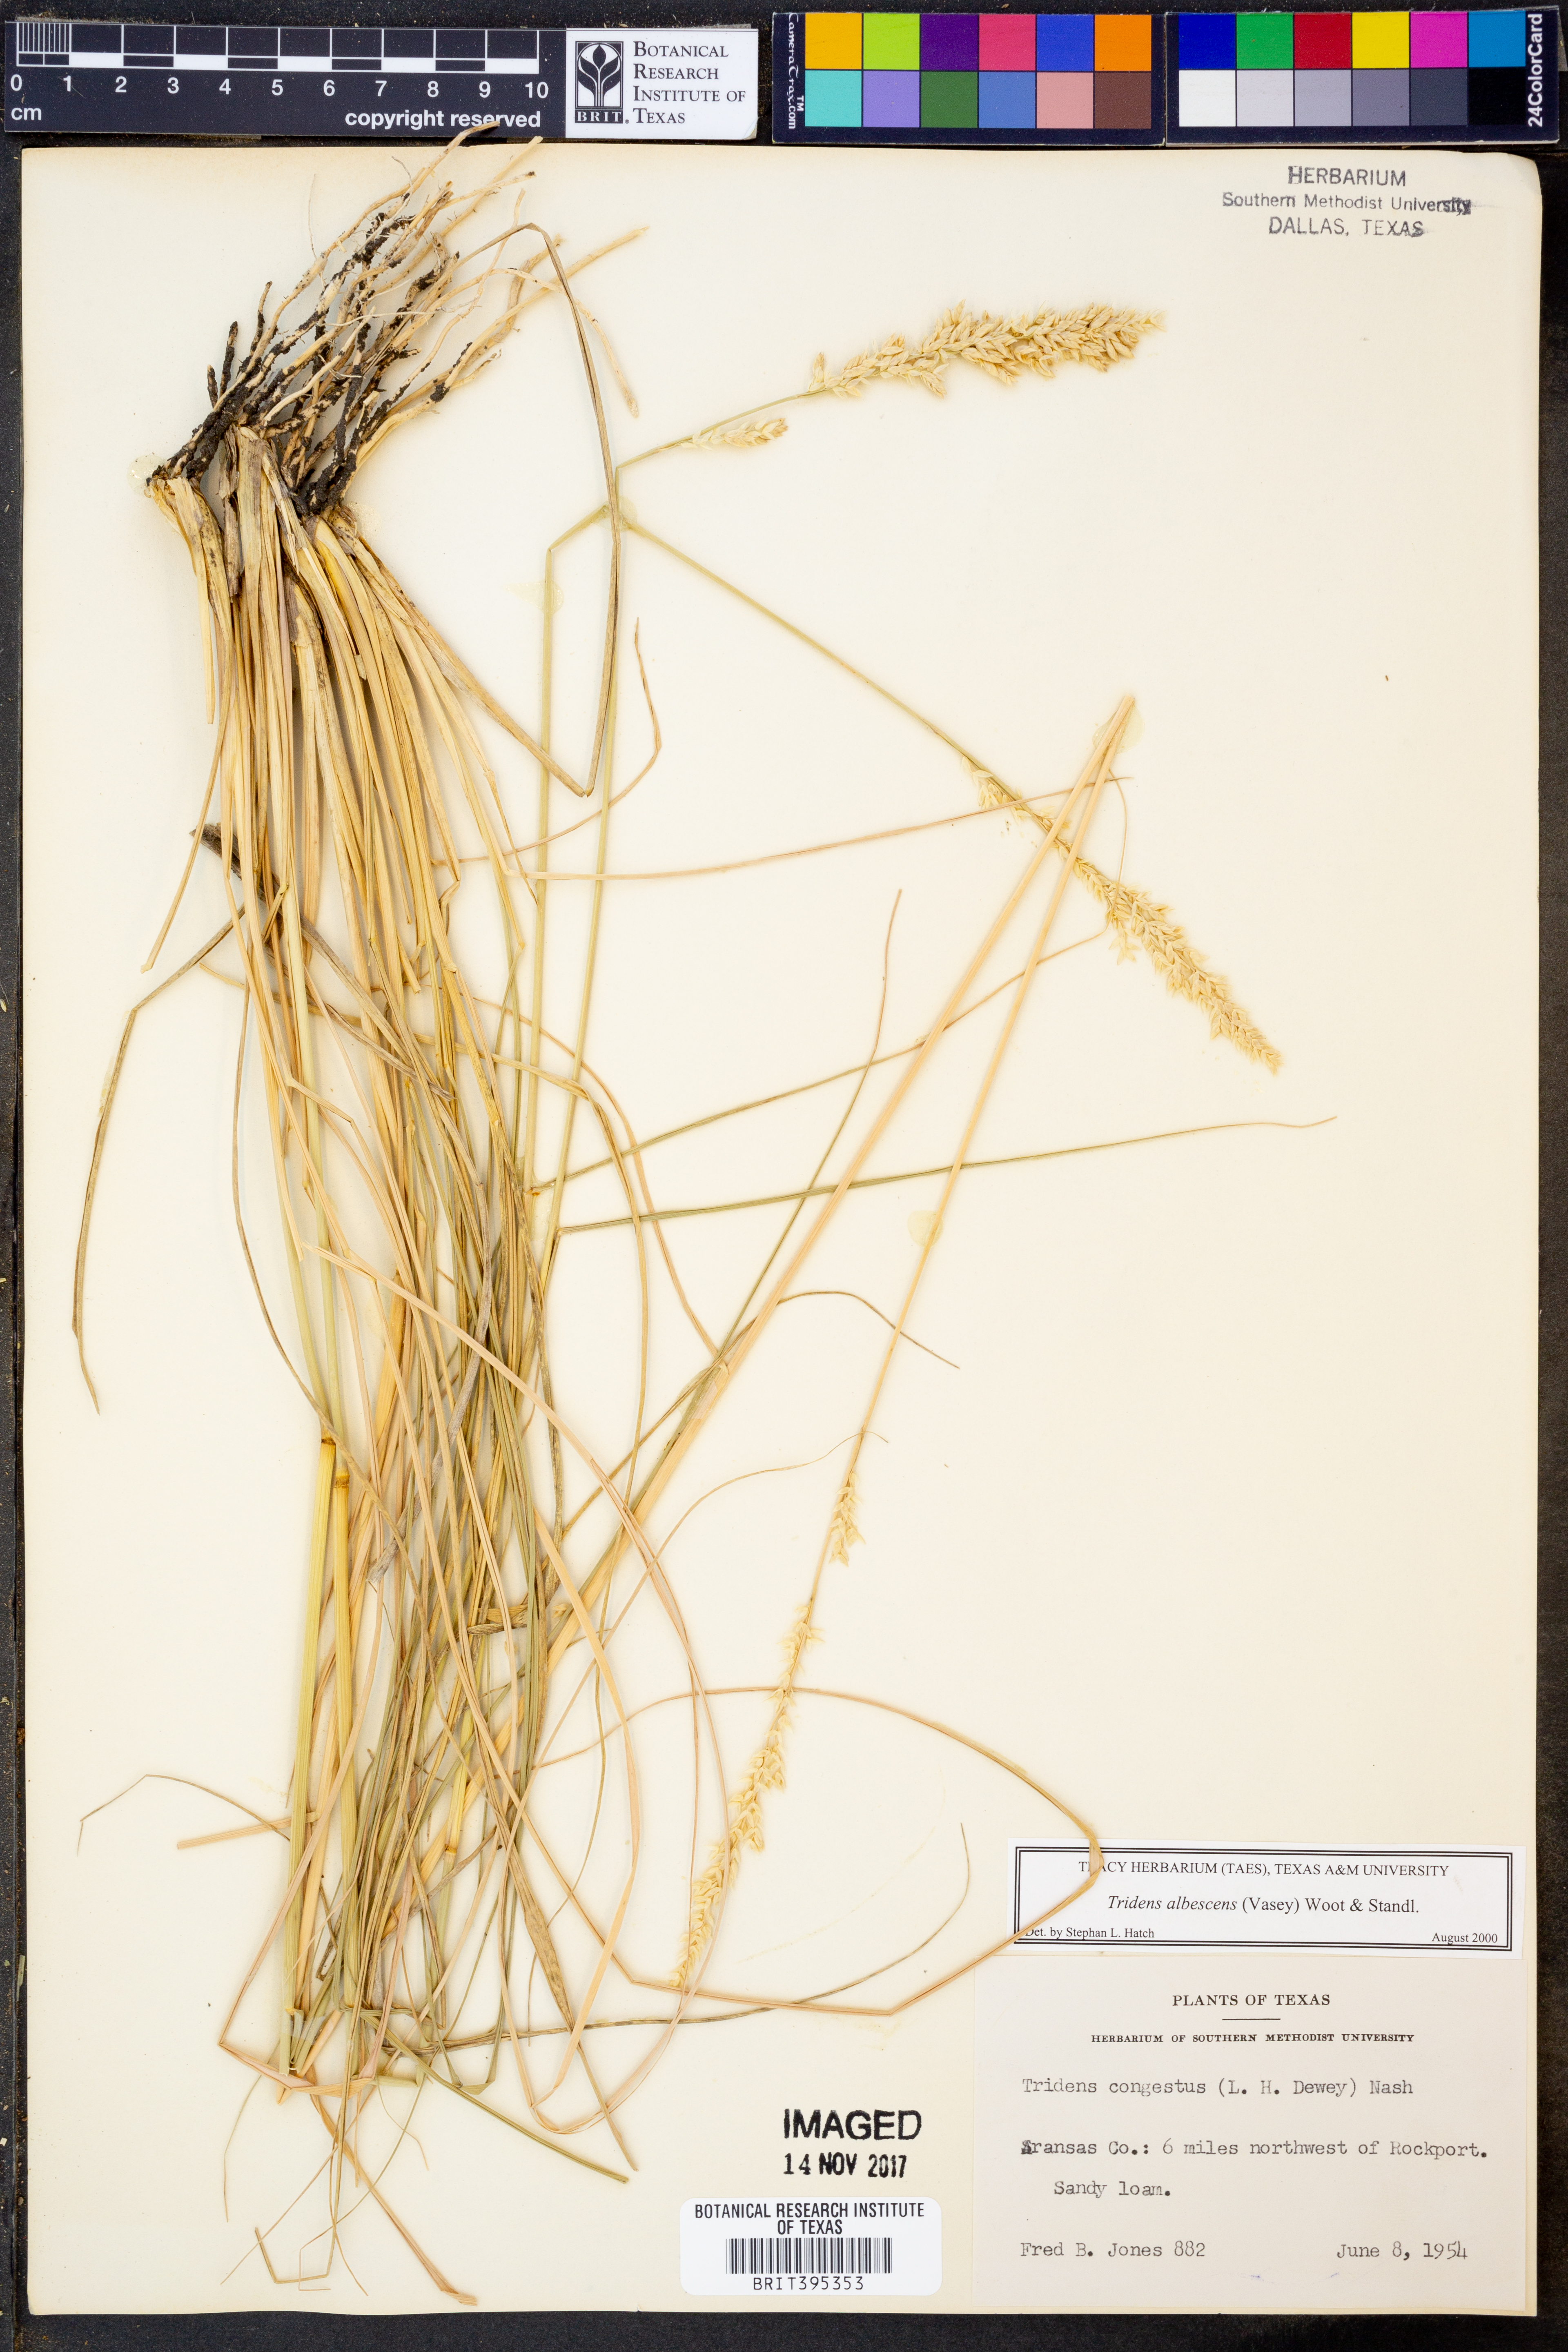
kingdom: Plantae
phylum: Tracheophyta
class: Liliopsida
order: Poales
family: Poaceae
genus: Tridens
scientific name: Tridens albescens
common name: White tridens
